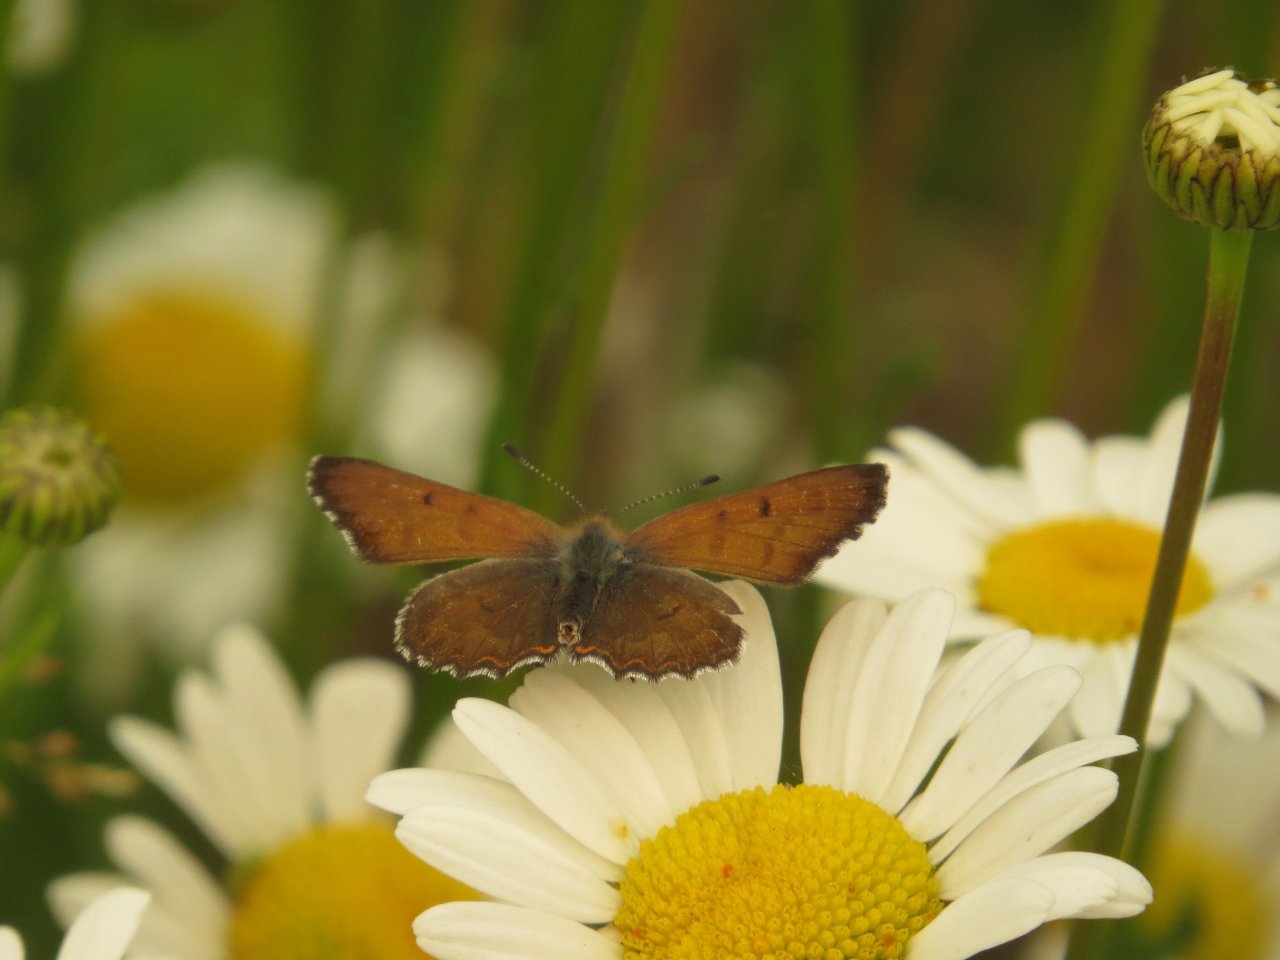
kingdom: Animalia
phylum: Arthropoda
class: Insecta
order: Lepidoptera
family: Lycaenidae
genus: Lycaena
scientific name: Lycaena mariposa
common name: Mariposa Copper
